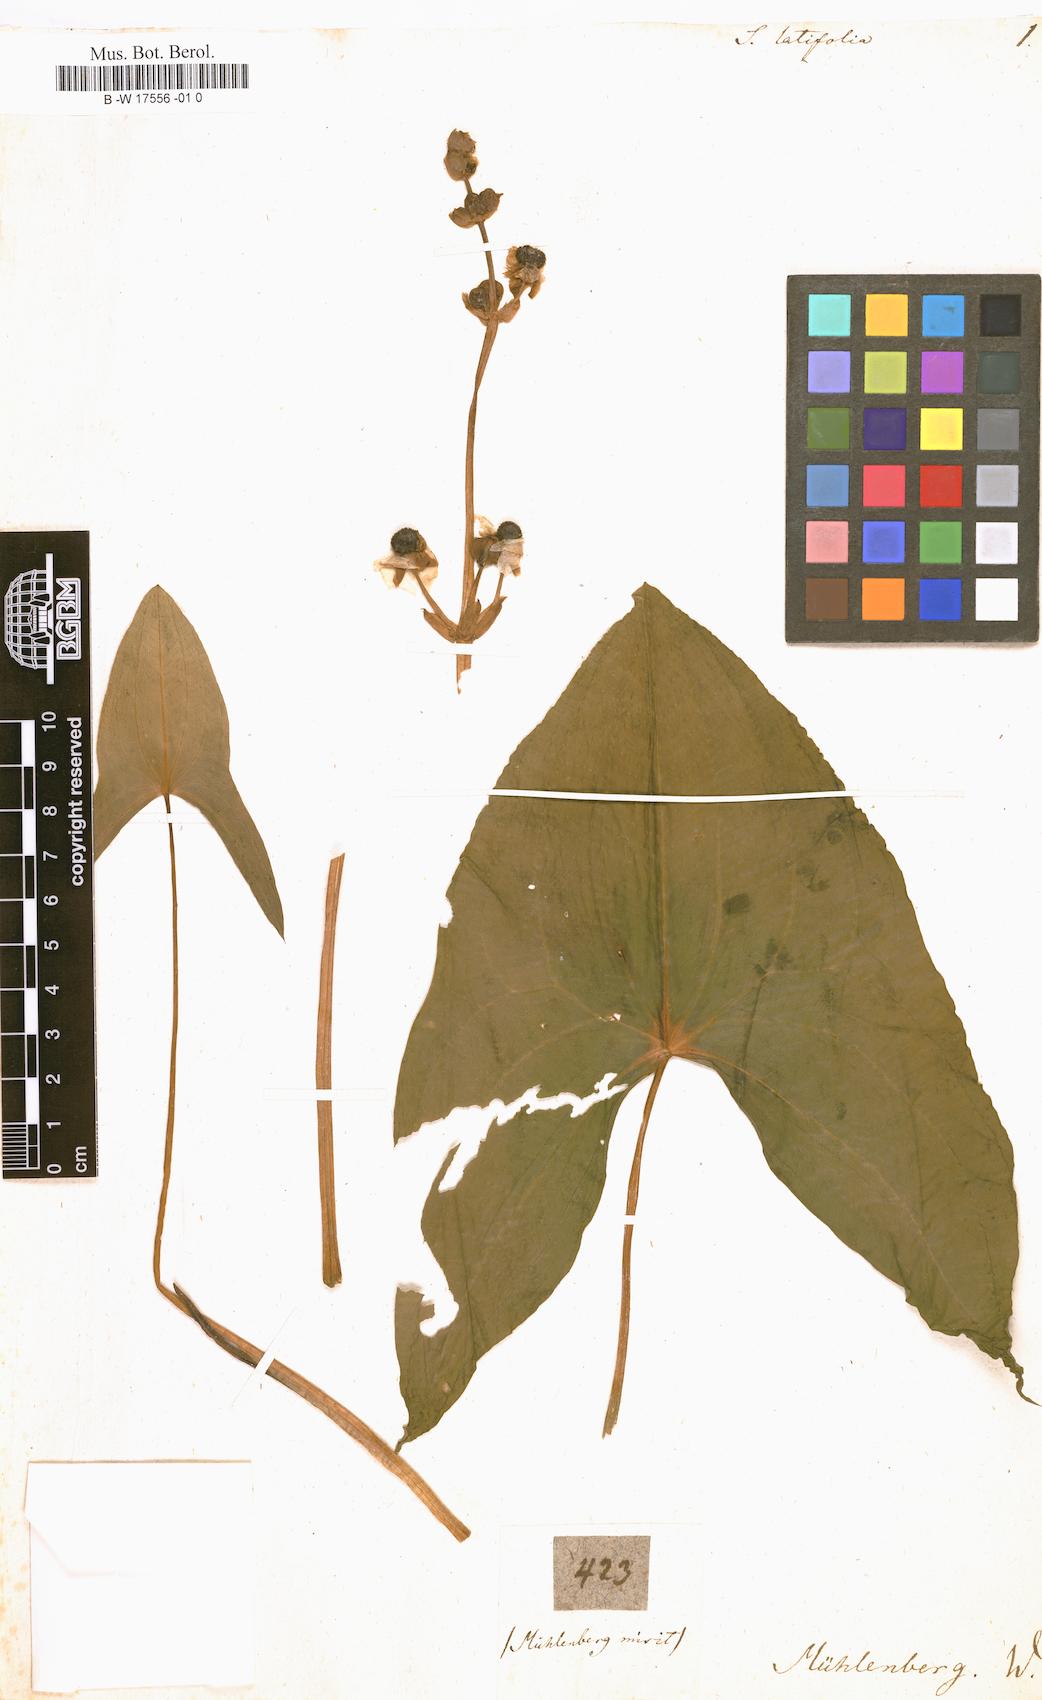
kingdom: Plantae
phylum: Tracheophyta
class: Liliopsida
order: Alismatales
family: Alismataceae
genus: Sagittaria
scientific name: Sagittaria latifolia
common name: Duck-potato
